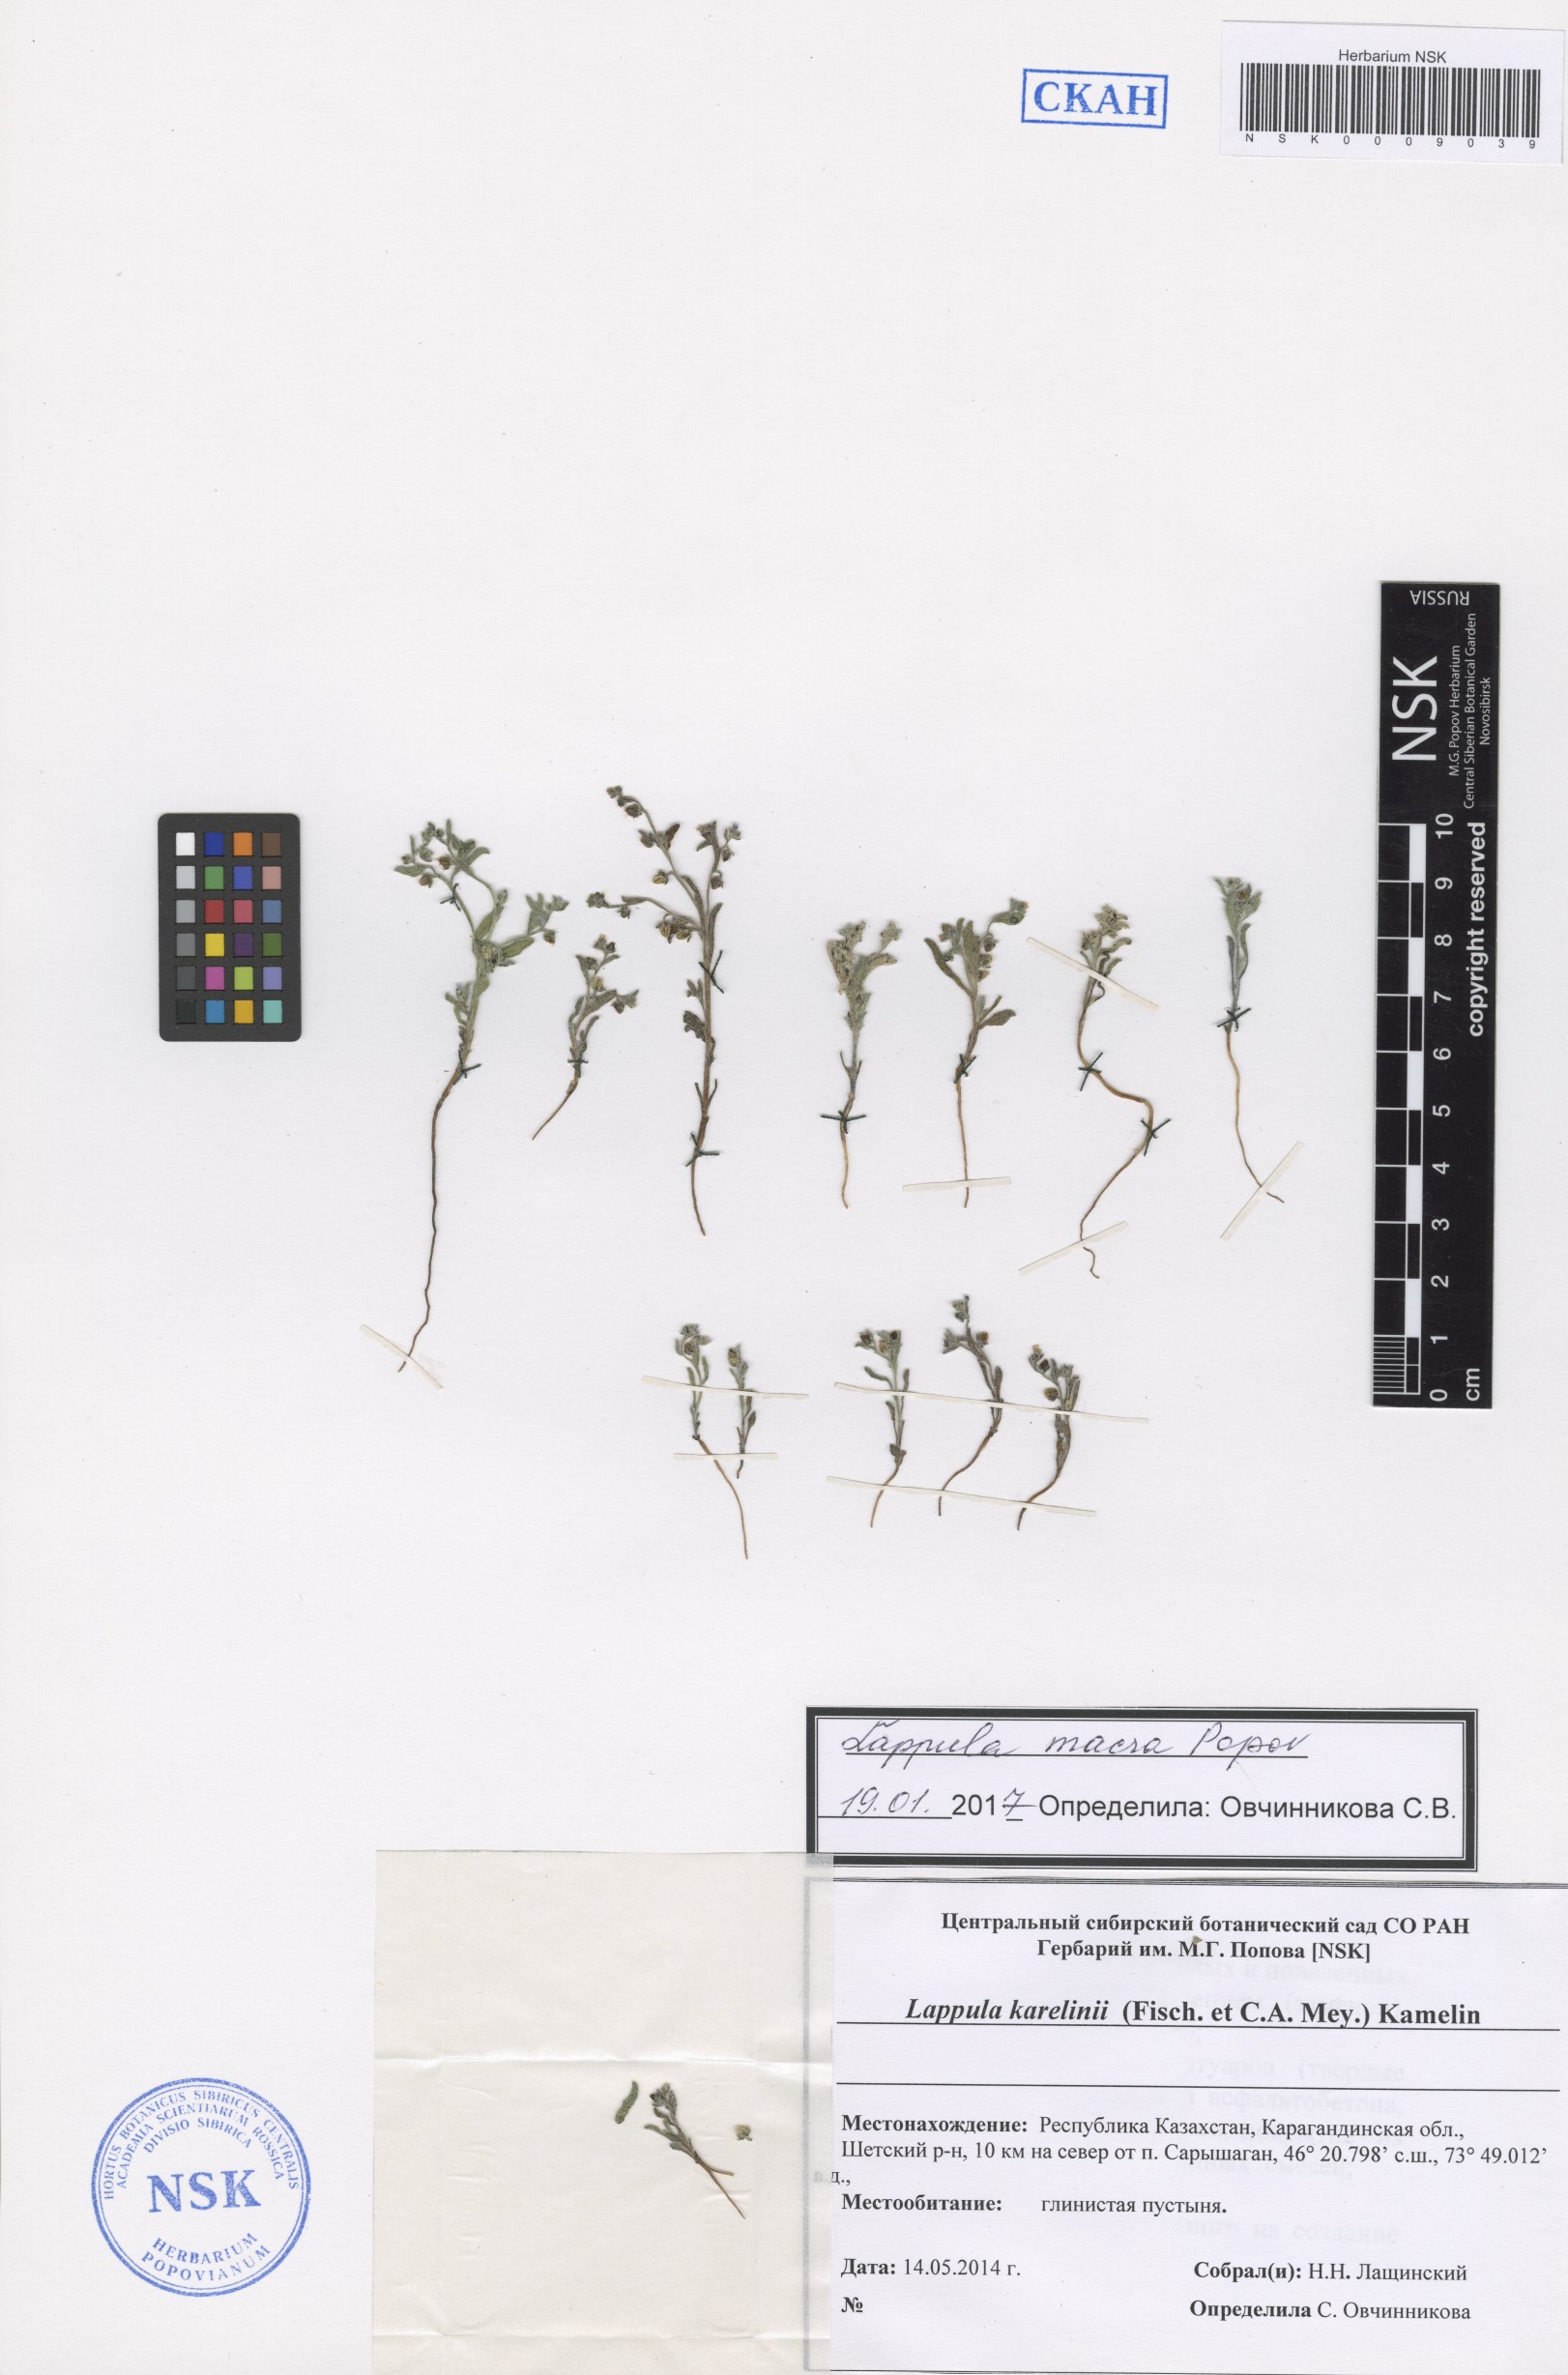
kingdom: Plantae
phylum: Tracheophyta
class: Magnoliopsida
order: Boraginales
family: Boraginaceae
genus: Lappula
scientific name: Lappula macra
